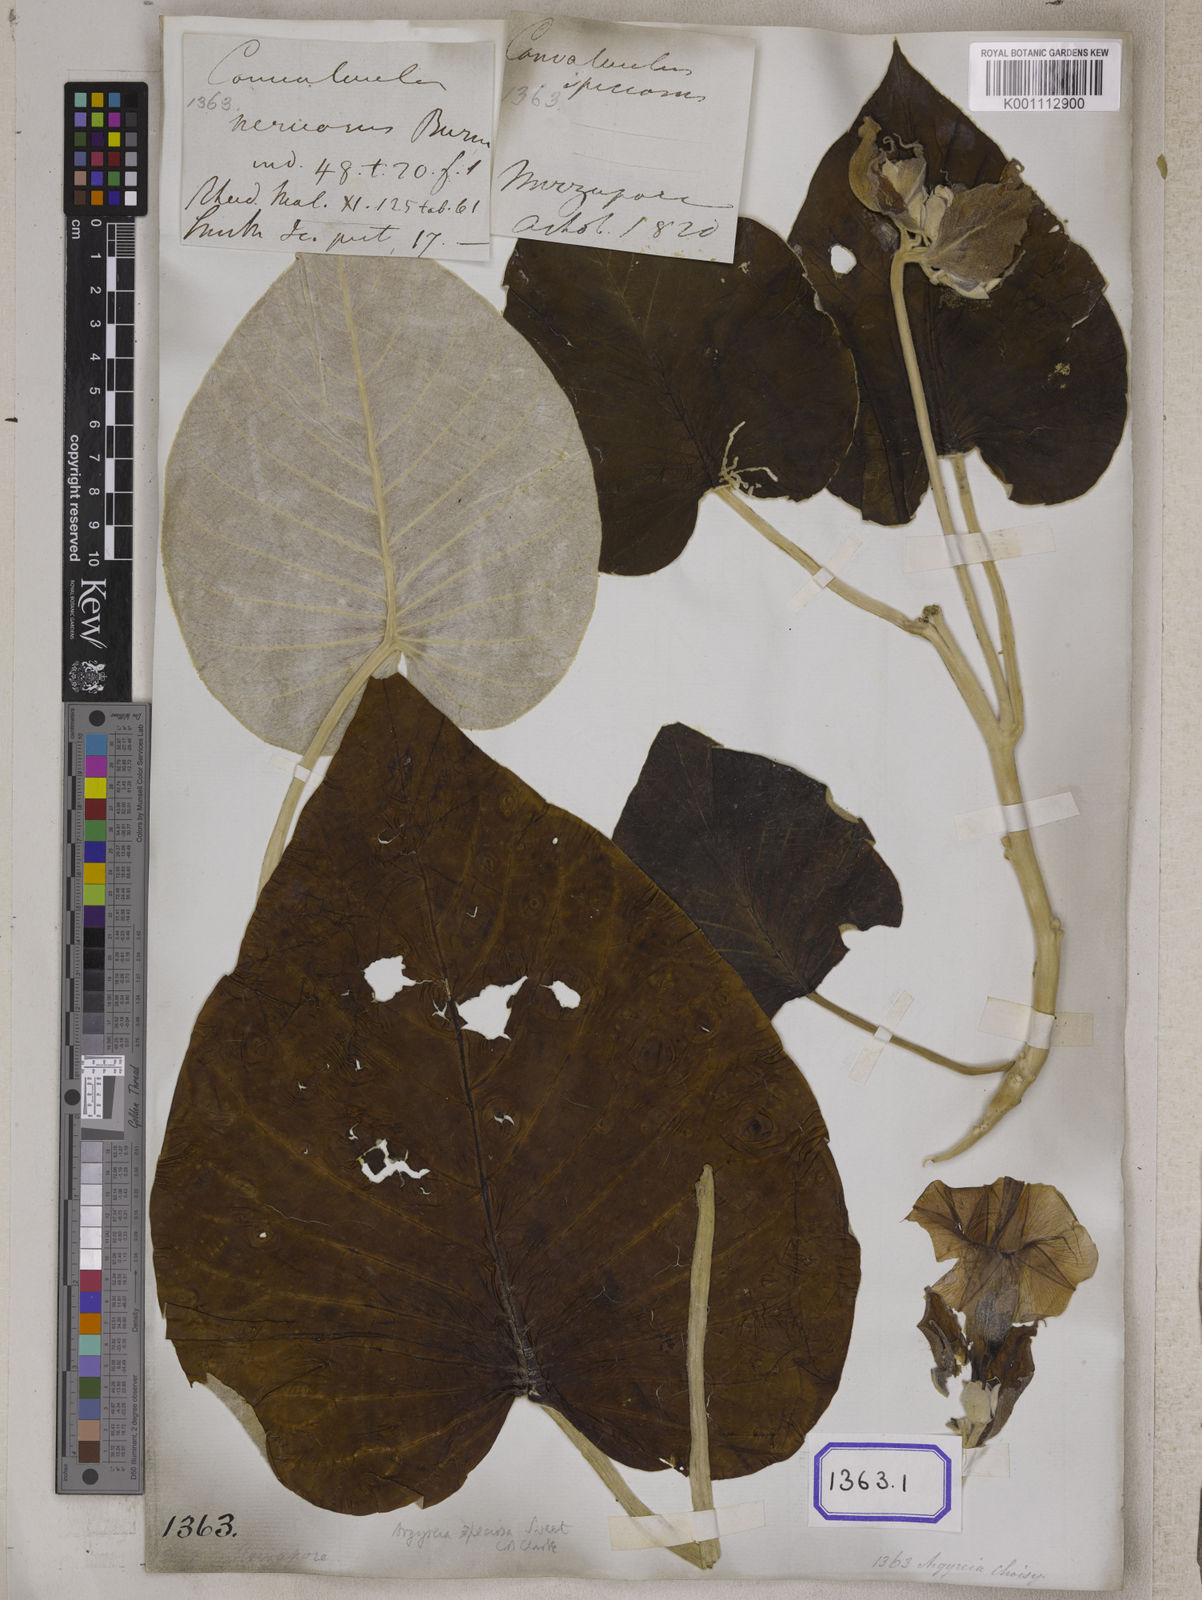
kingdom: Plantae
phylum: Tracheophyta
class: Magnoliopsida
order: Solanales
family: Convolvulaceae
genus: Convolvulus
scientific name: Convolvulus
